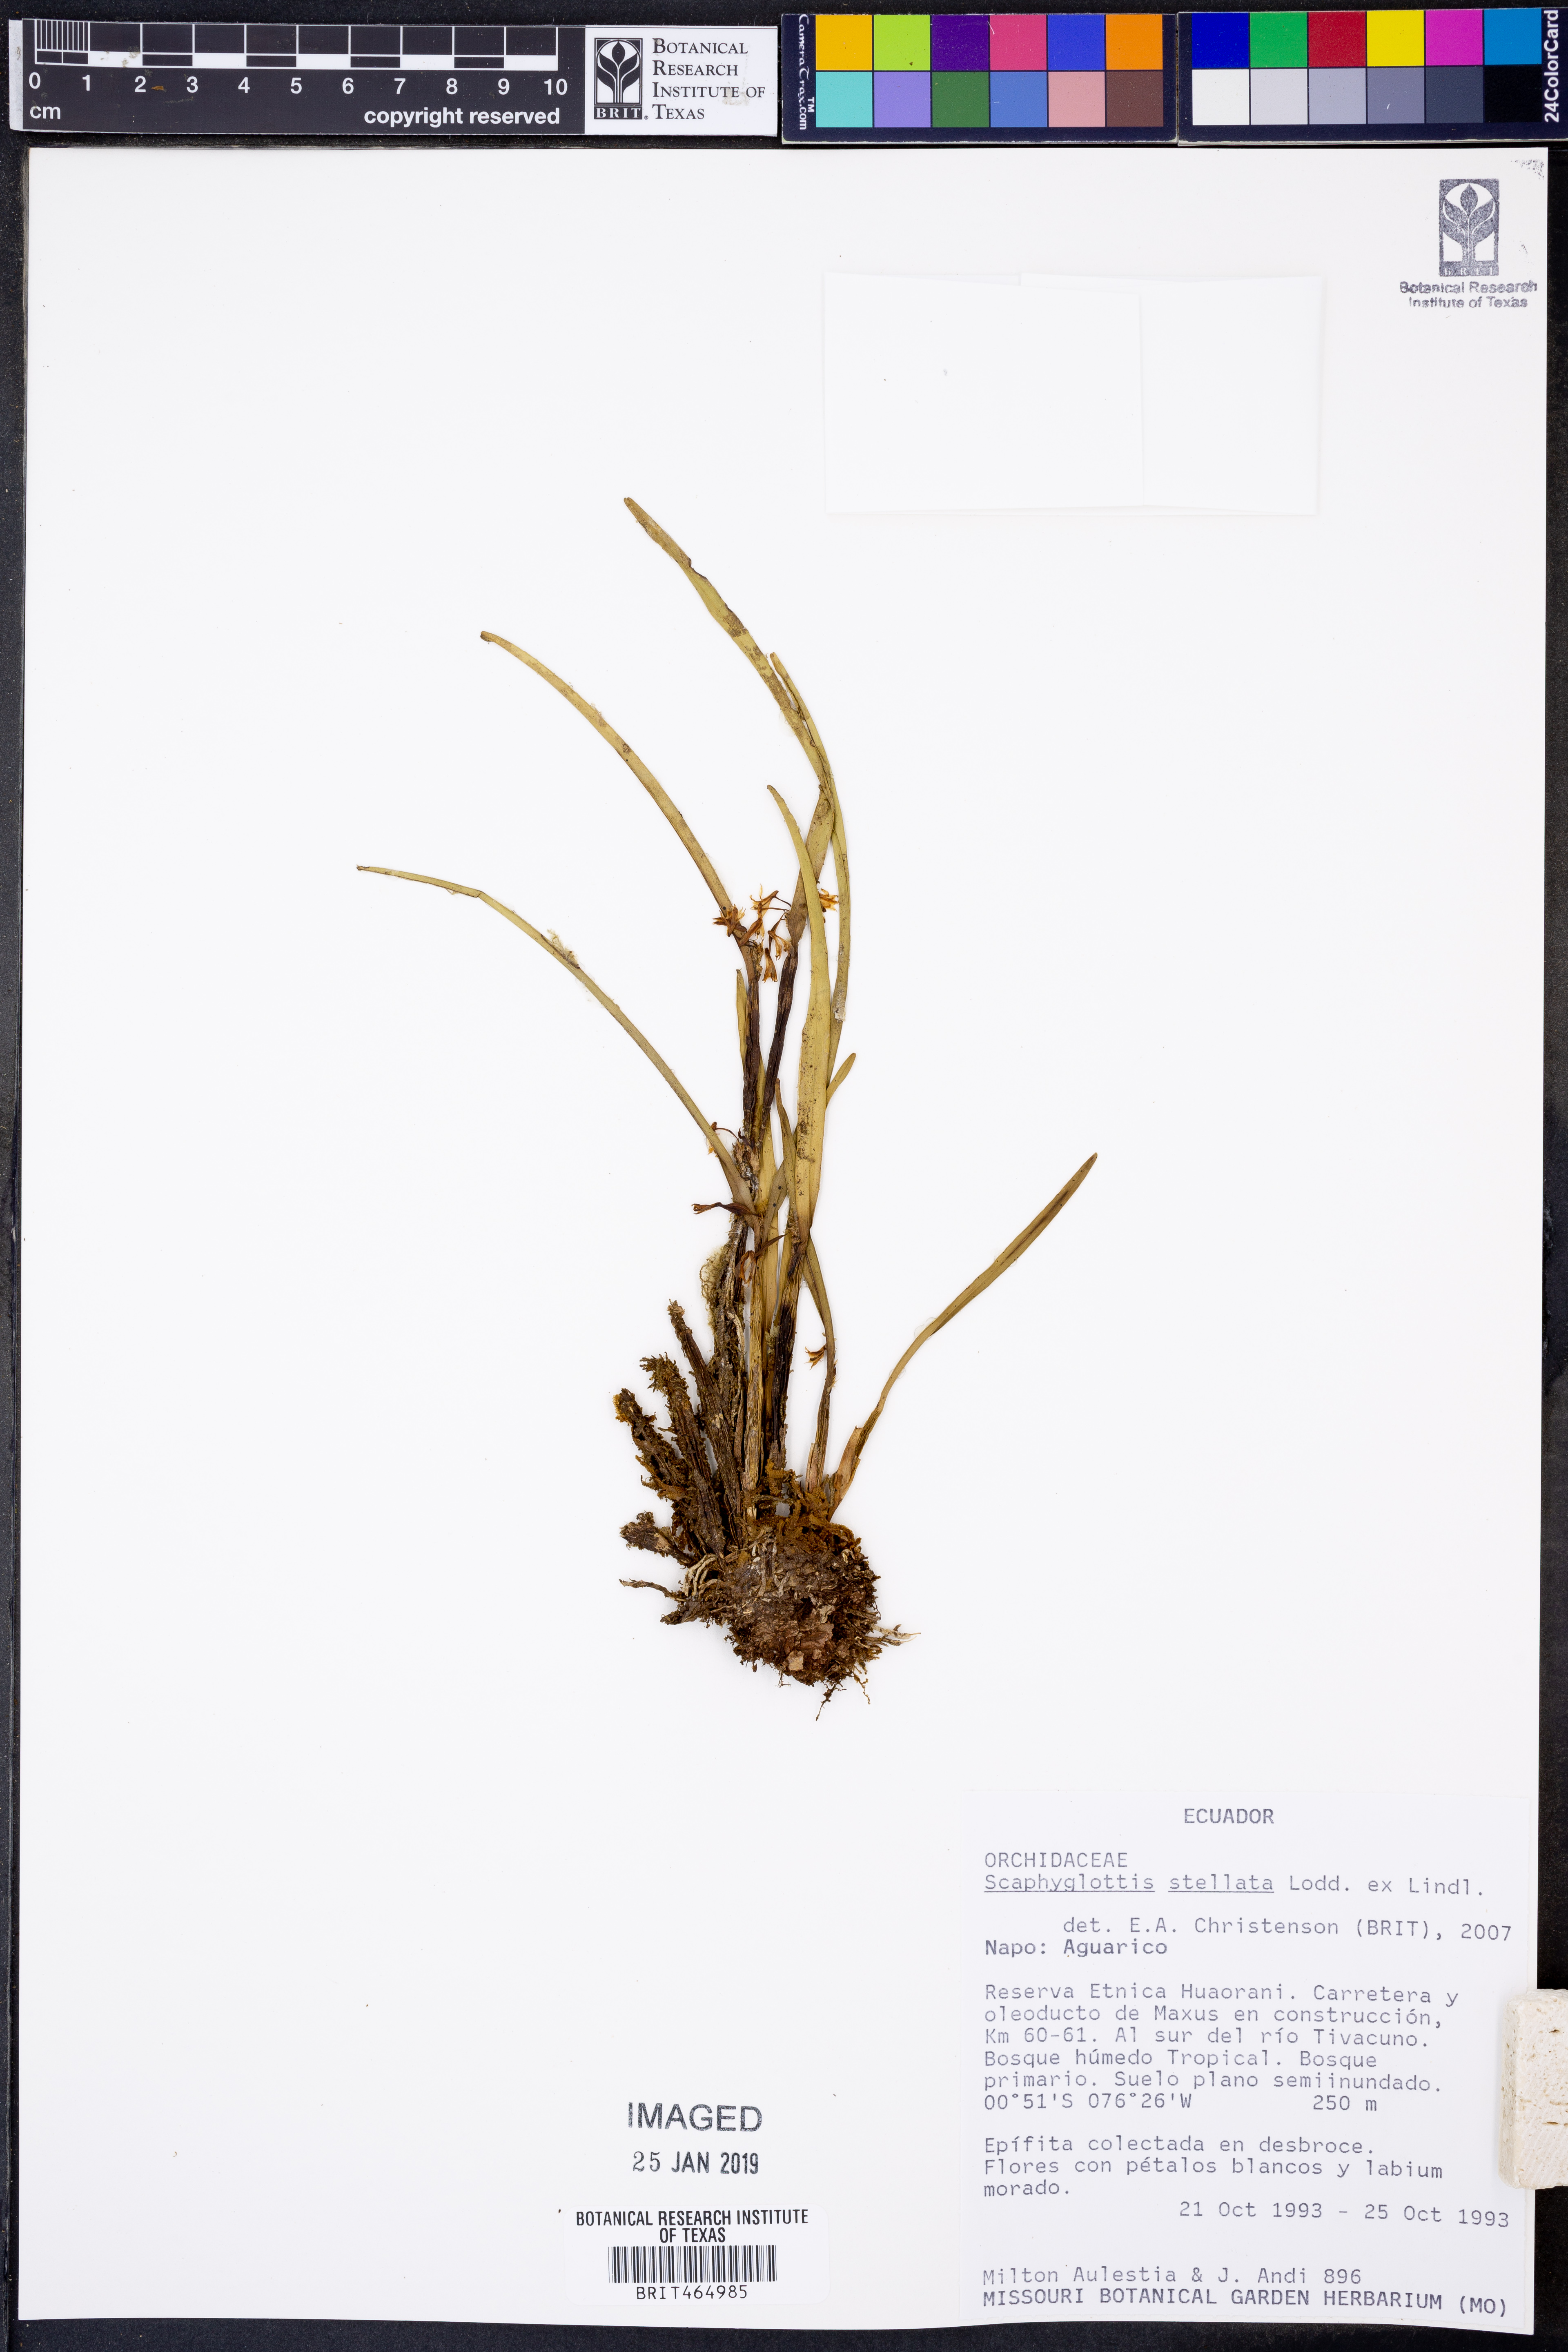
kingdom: Plantae
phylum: Tracheophyta
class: Liliopsida
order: Asparagales
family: Orchidaceae
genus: Scaphyglottis
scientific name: Scaphyglottis stellata
